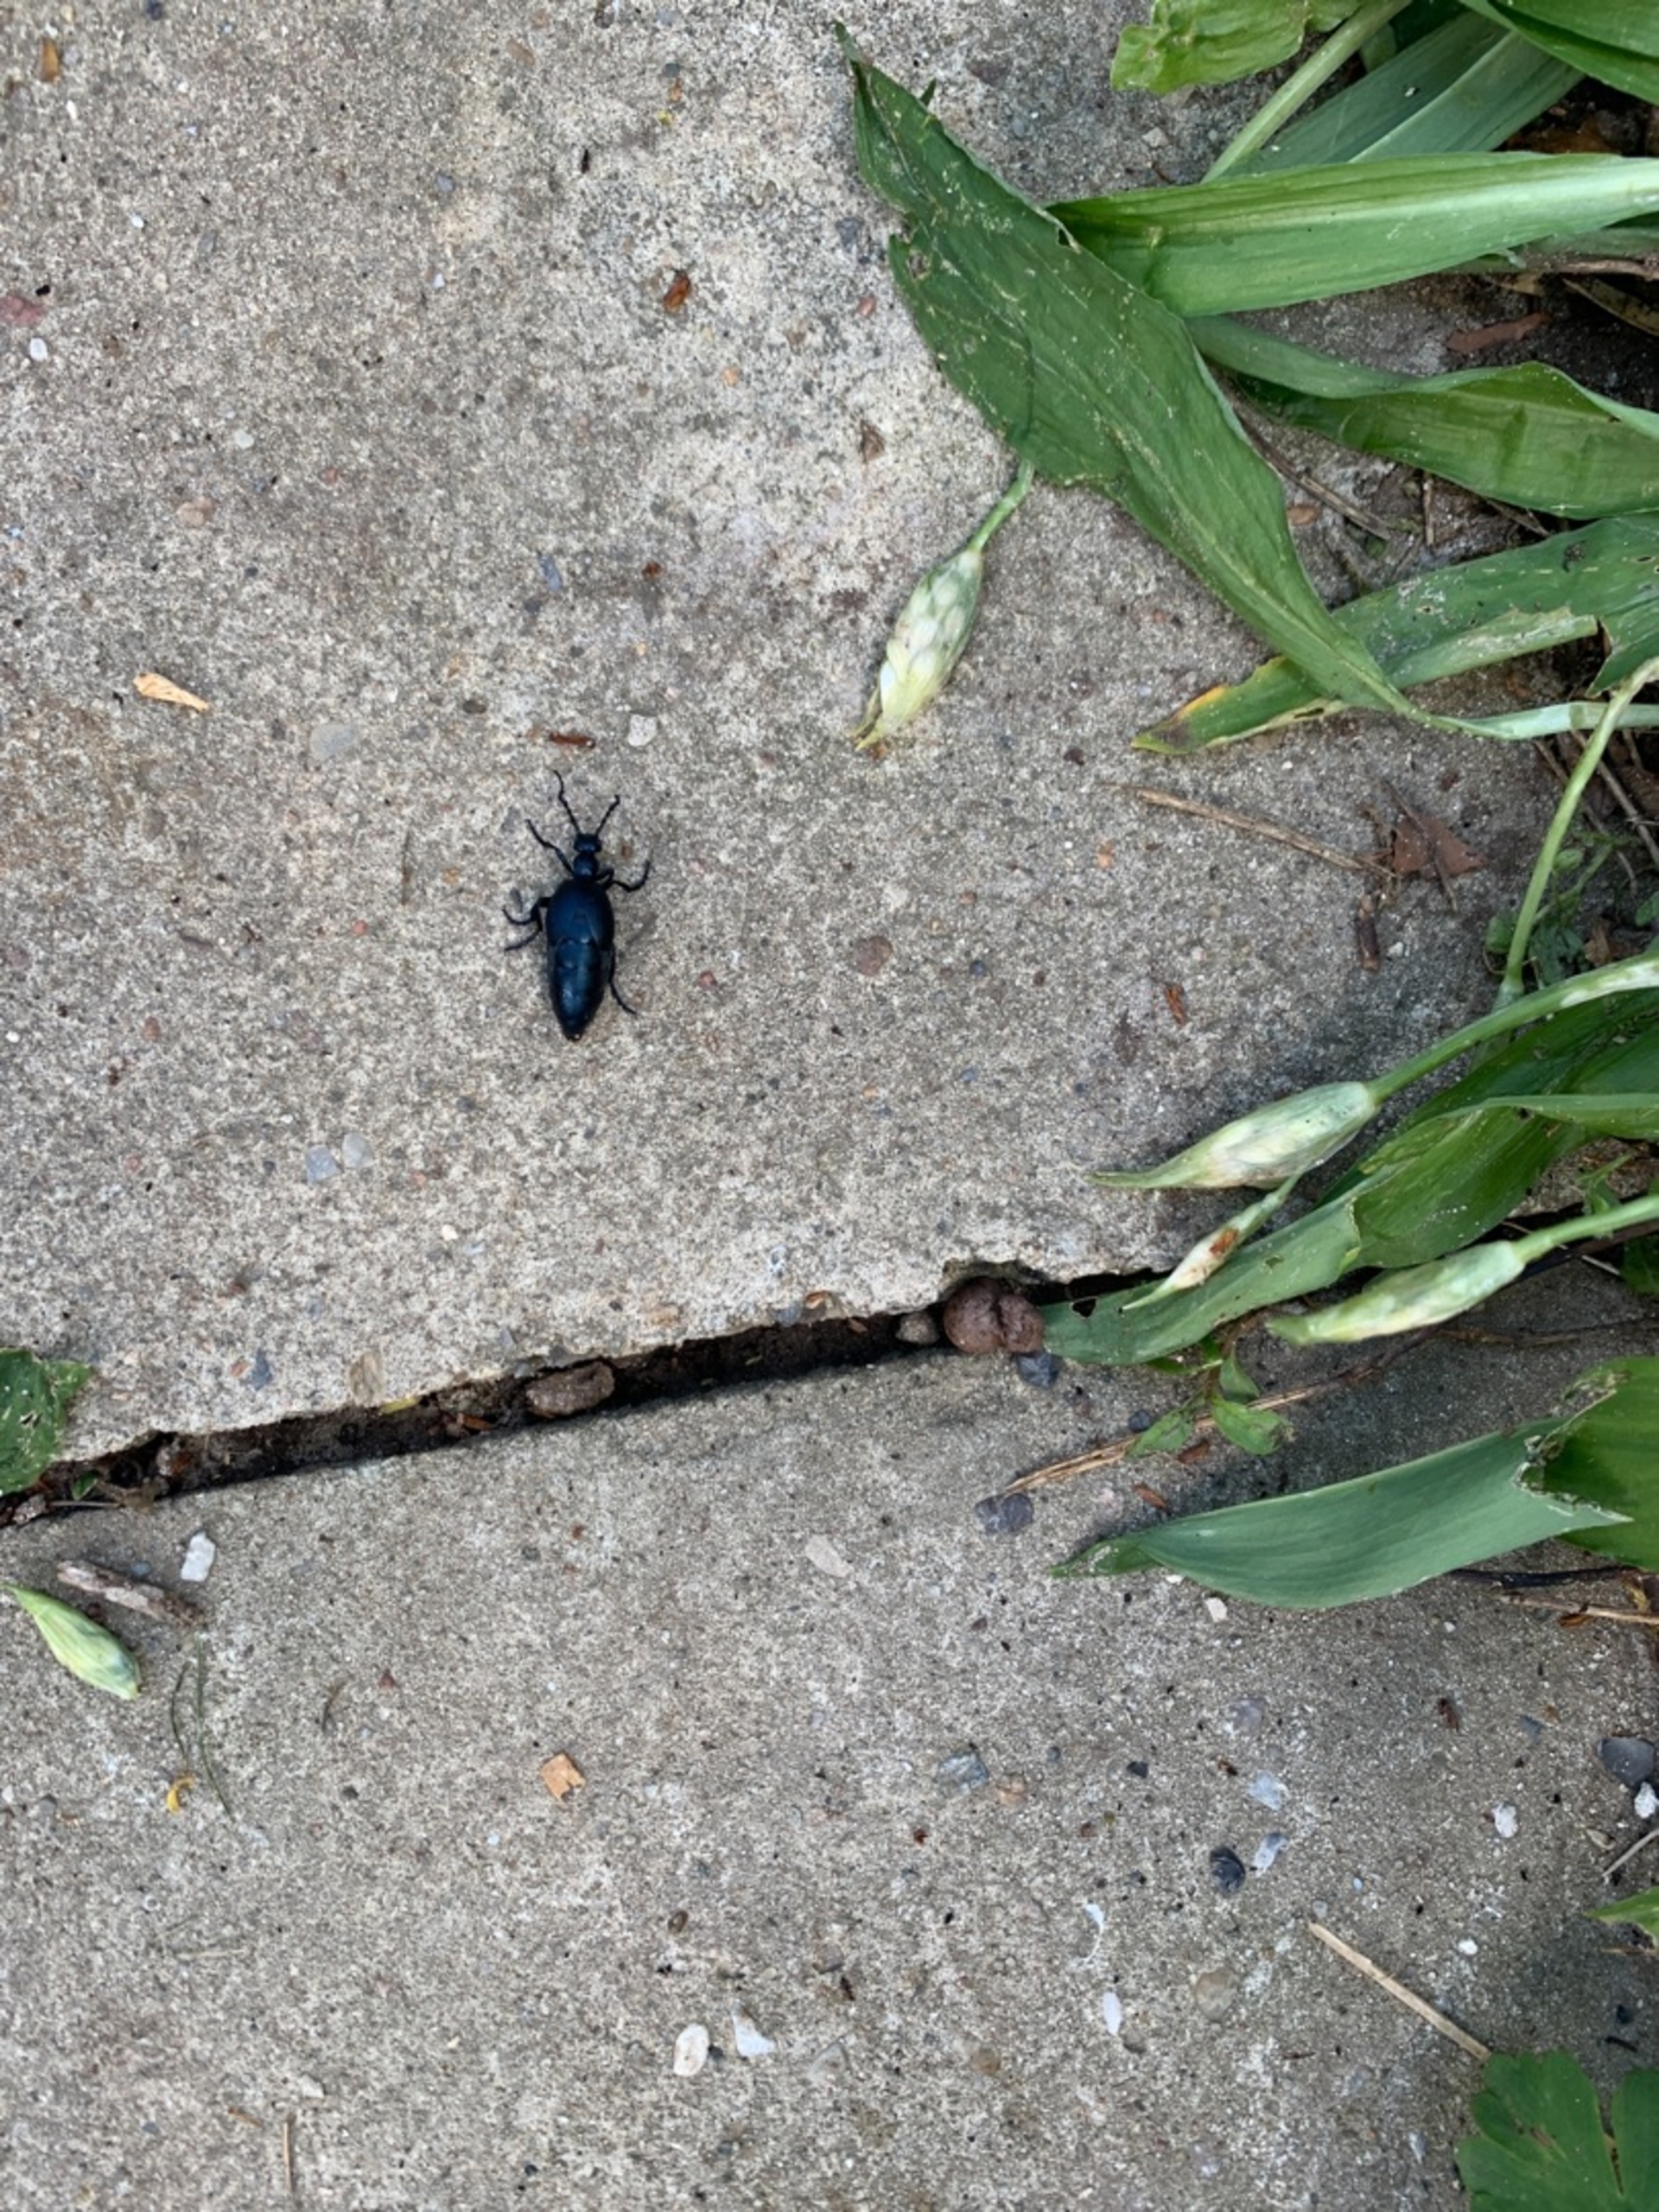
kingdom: Animalia
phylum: Arthropoda
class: Insecta
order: Coleoptera
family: Meloidae
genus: Meloe
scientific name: Meloe violaceus
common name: Blå oliebille
